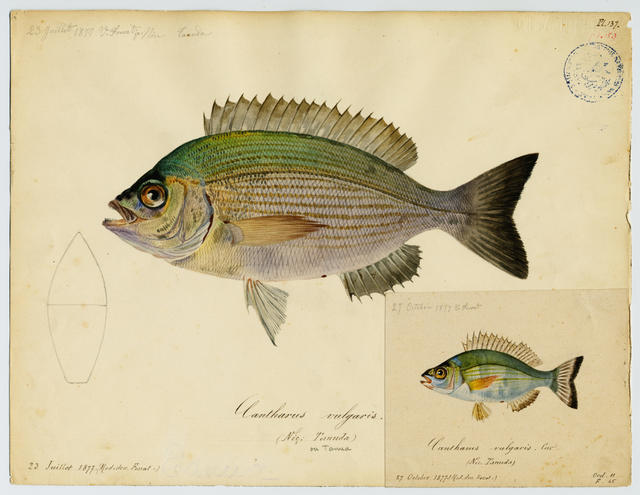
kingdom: Animalia
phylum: Chordata
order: Perciformes
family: Sparidae
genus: Dentex
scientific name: Dentex dentex
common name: Dentex
